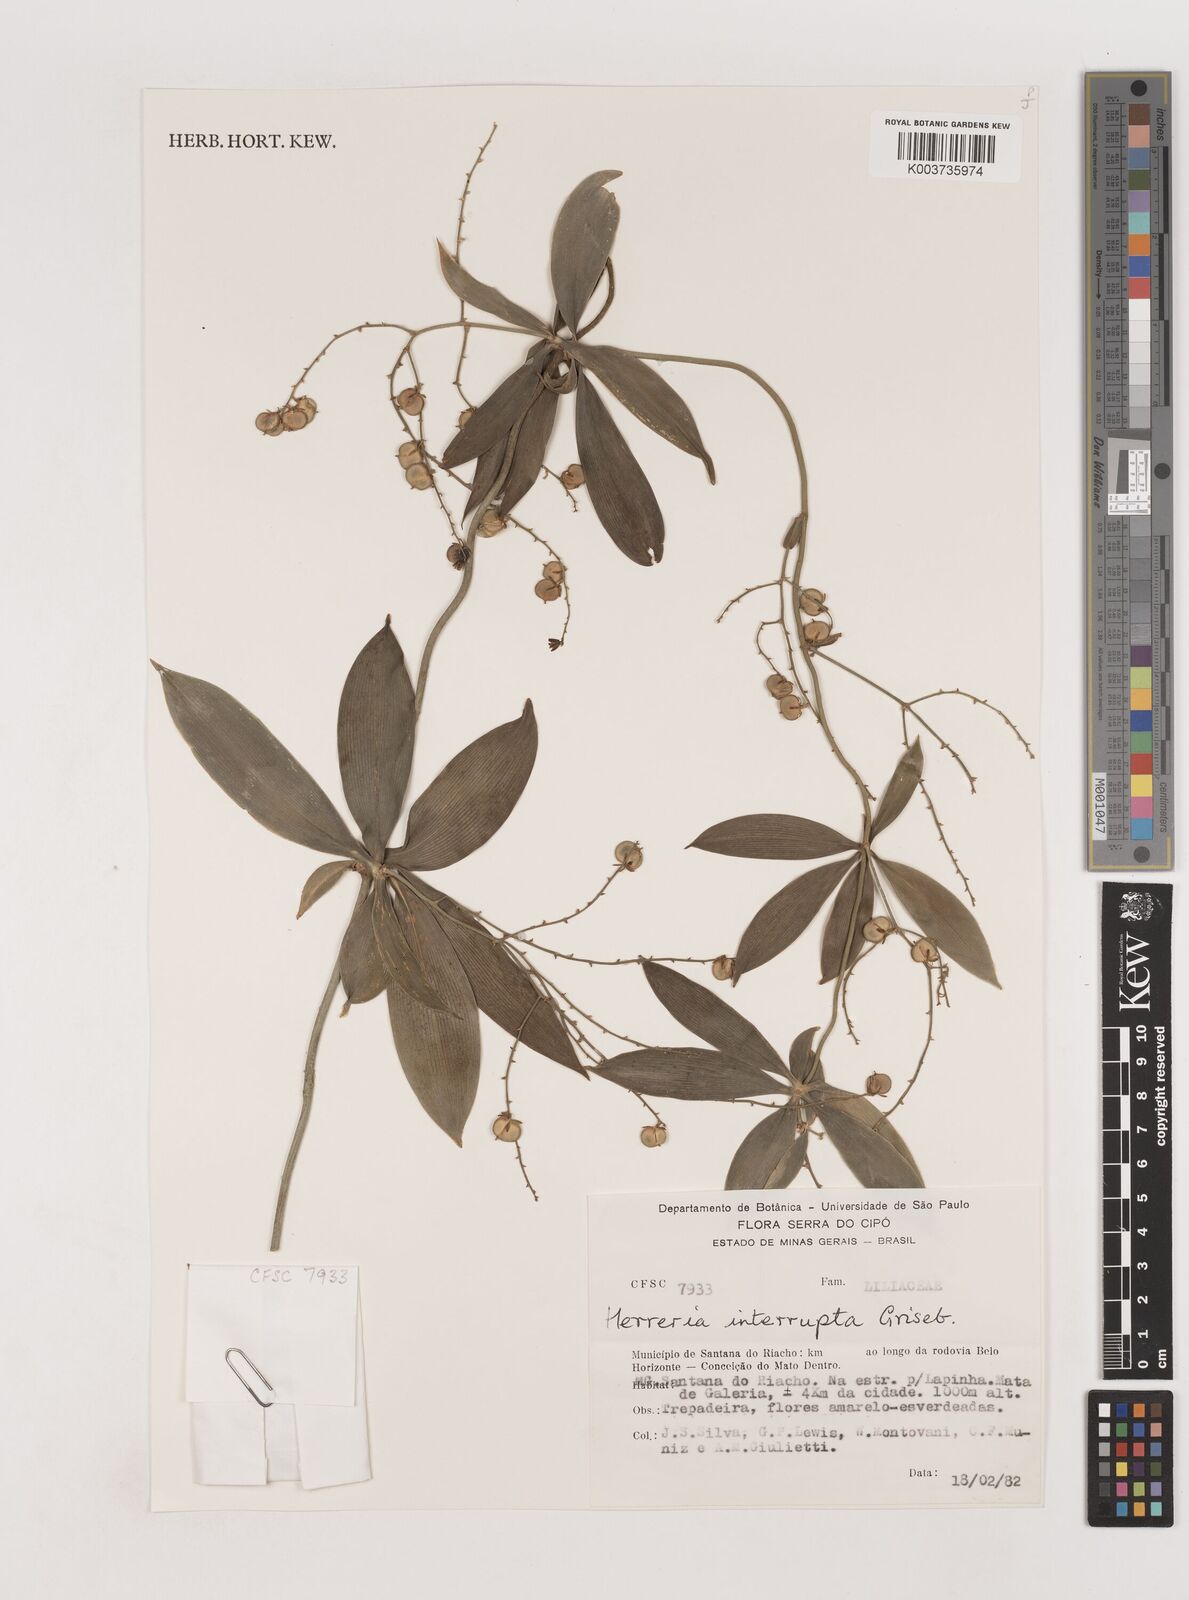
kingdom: Plantae
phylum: Tracheophyta
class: Liliopsida
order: Asparagales
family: Asparagaceae
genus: Herreria
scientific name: Herreria salsaparilha
